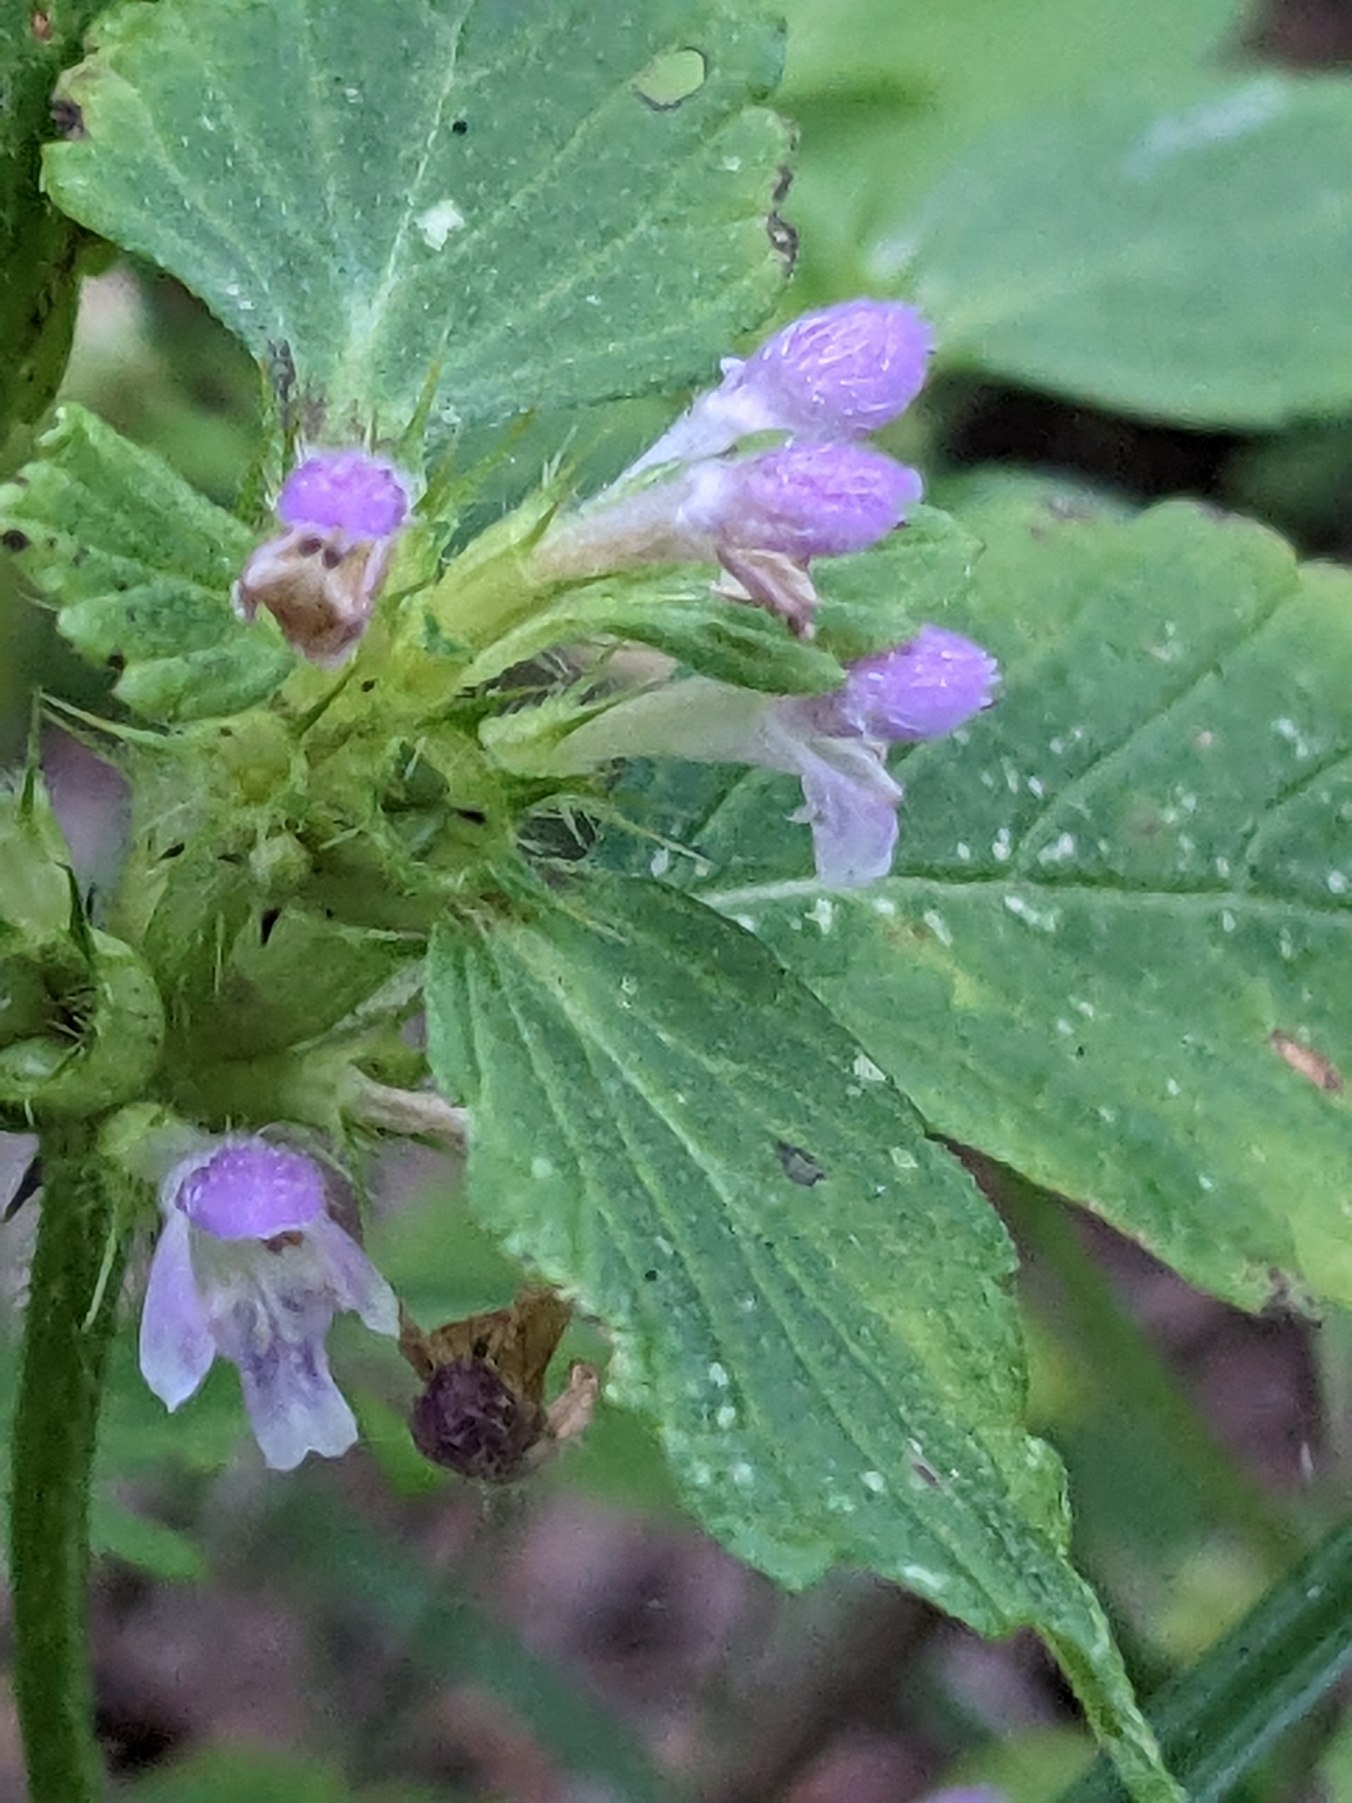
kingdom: Plantae
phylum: Tracheophyta
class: Magnoliopsida
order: Lamiales
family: Lamiaceae
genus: Galeopsis
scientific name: Galeopsis bifida
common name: Skov-hanekro
